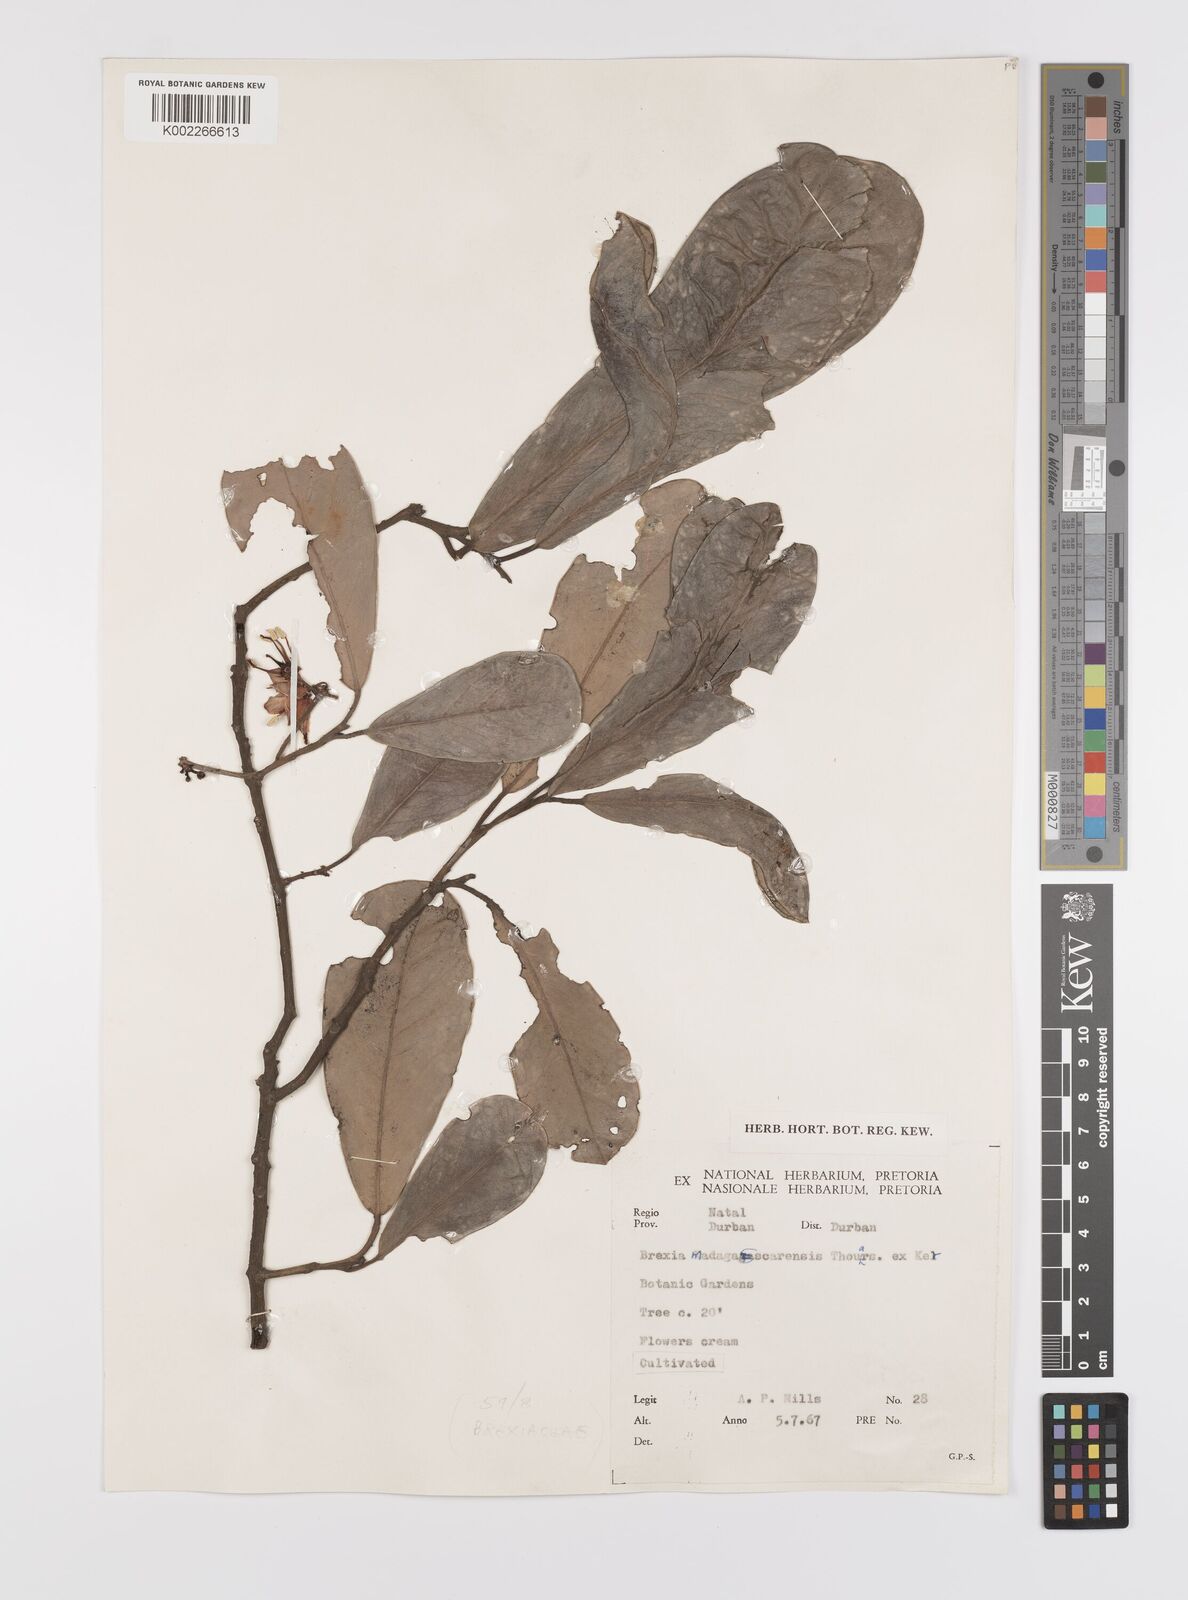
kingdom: Plantae
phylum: Tracheophyta
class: Magnoliopsida
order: Celastrales
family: Celastraceae
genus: Brexia
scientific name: Brexia madagascariensis
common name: Brexia
